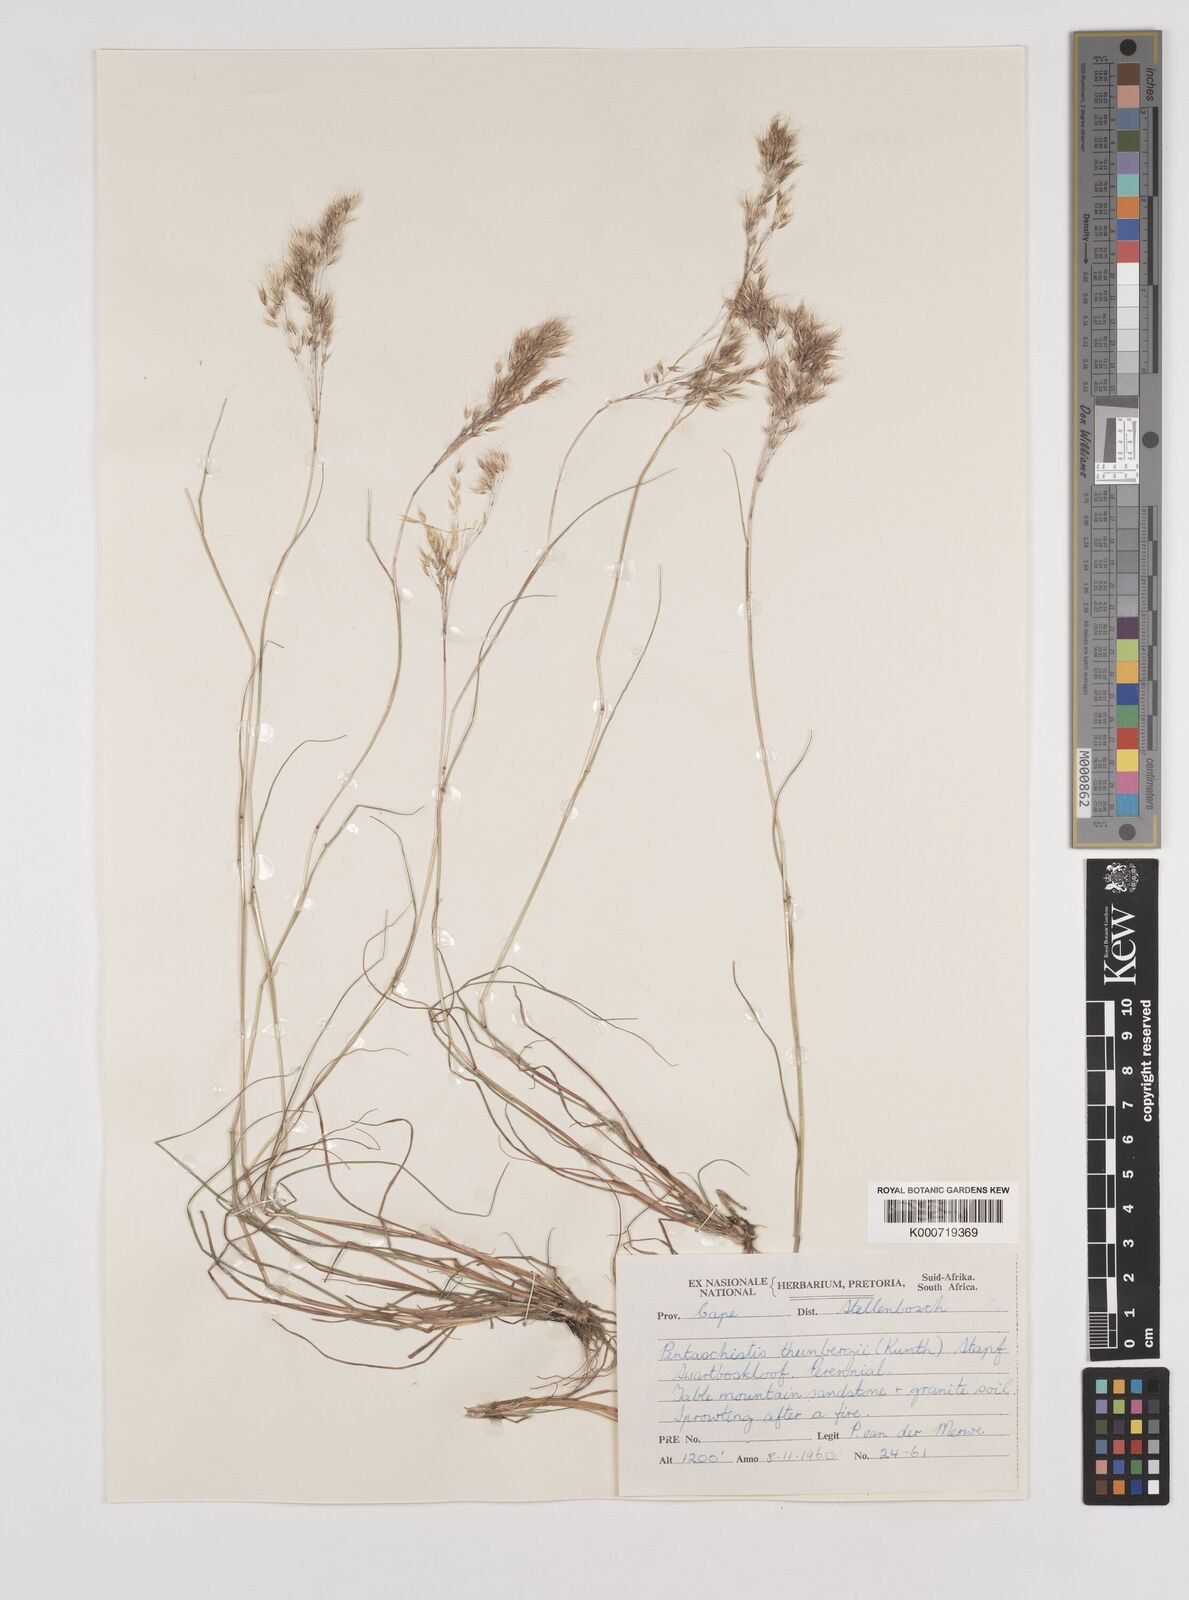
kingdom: Plantae
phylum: Tracheophyta
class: Liliopsida
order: Poales
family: Poaceae
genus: Pentameris
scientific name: Pentameris triseta
